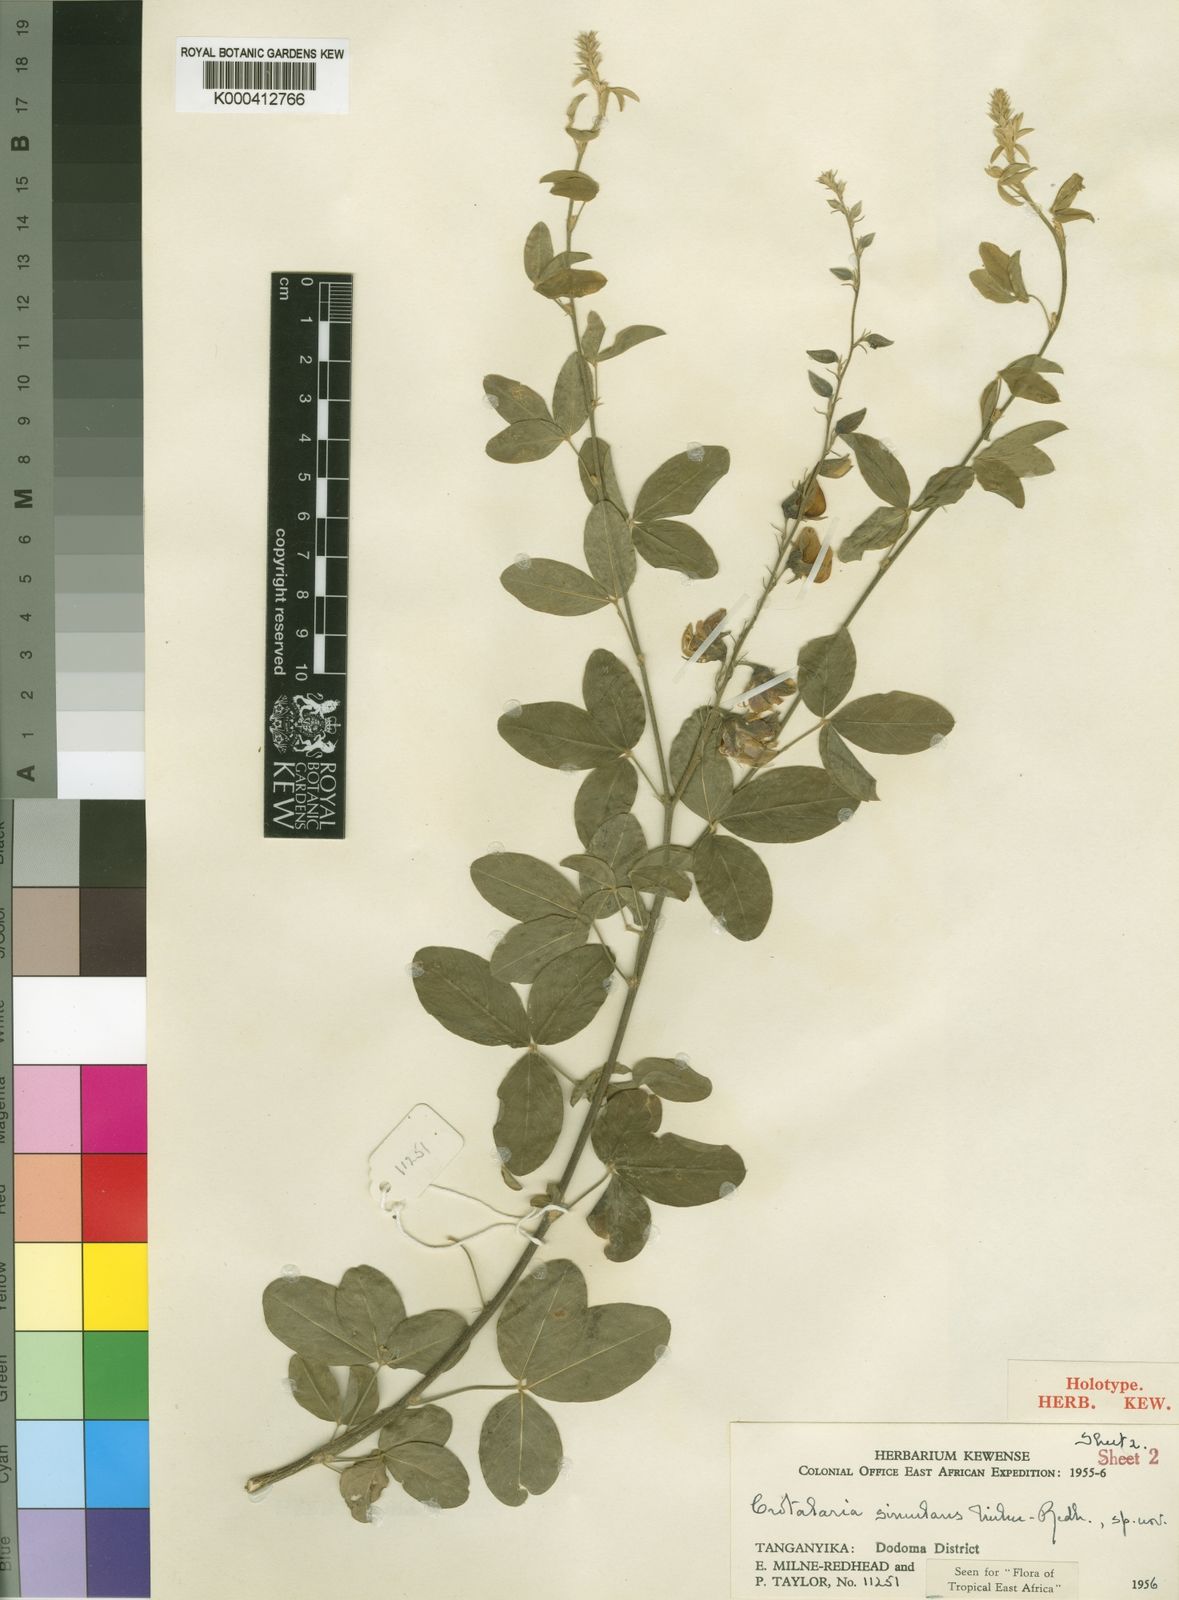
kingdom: Plantae
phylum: Tracheophyta
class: Magnoliopsida
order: Fabales
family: Fabaceae
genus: Crotalaria
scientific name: Crotalaria simulans
